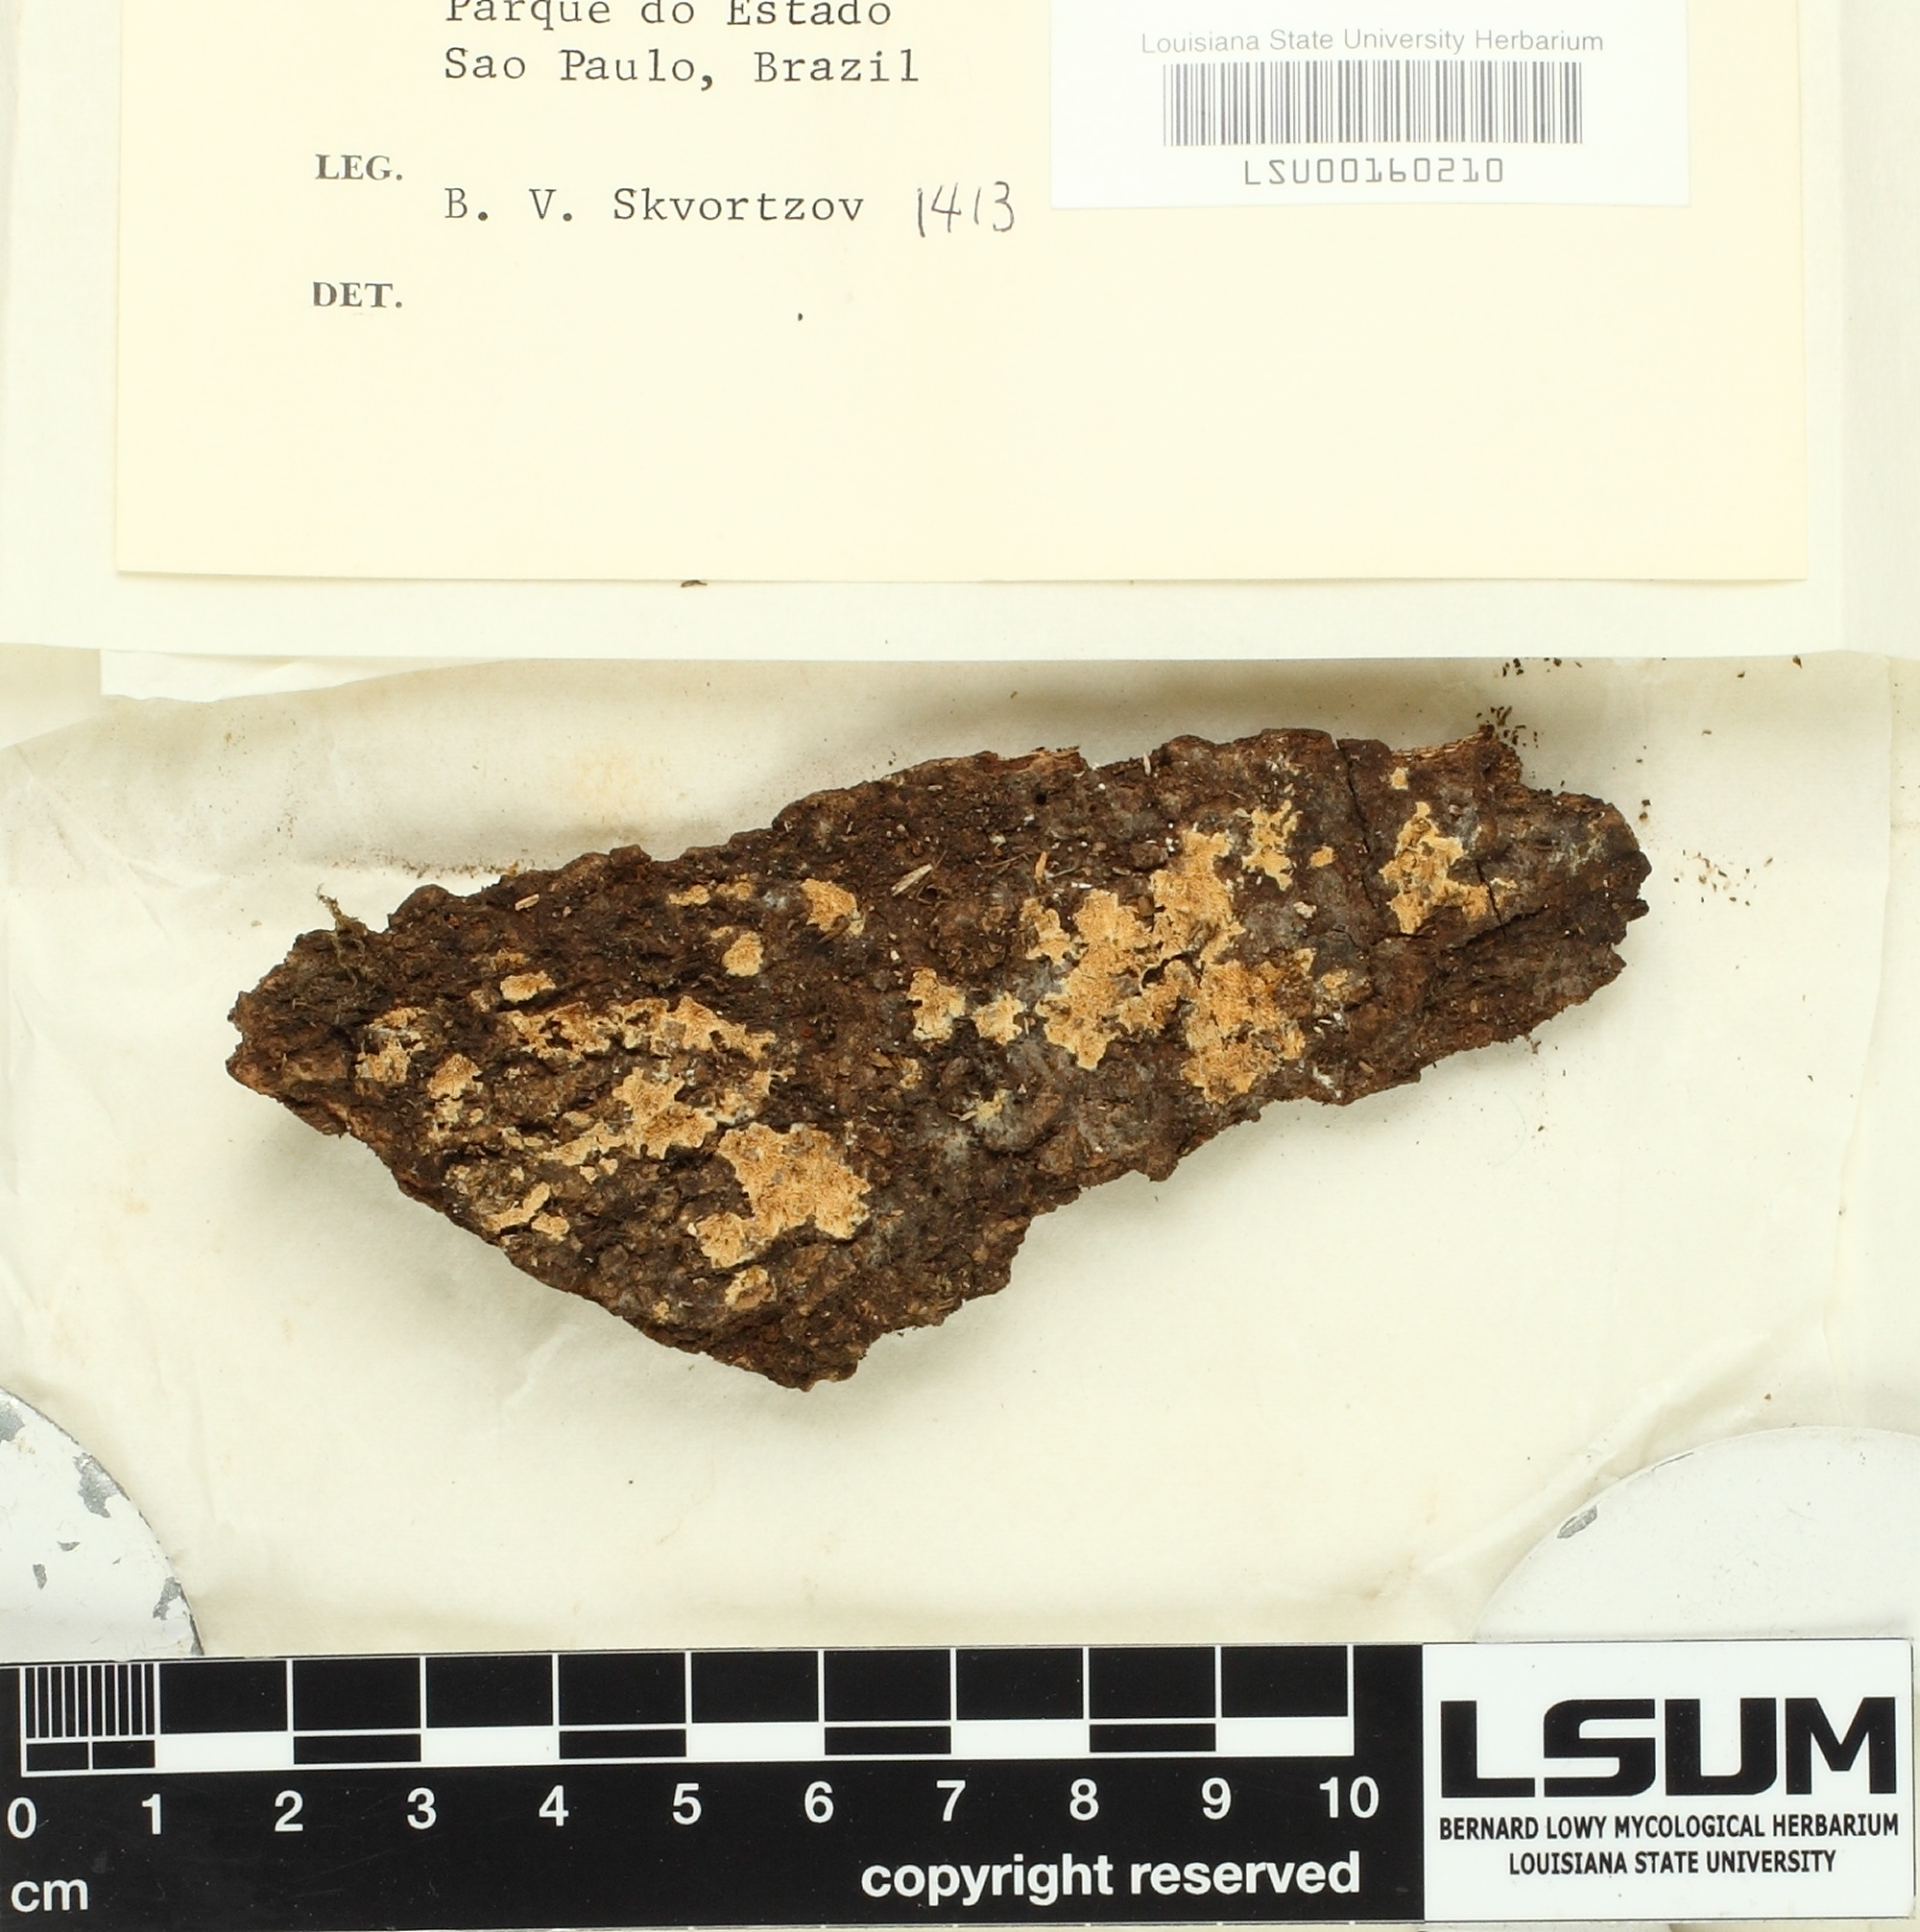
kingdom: Fungi
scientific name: Fungi
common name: Fungi
